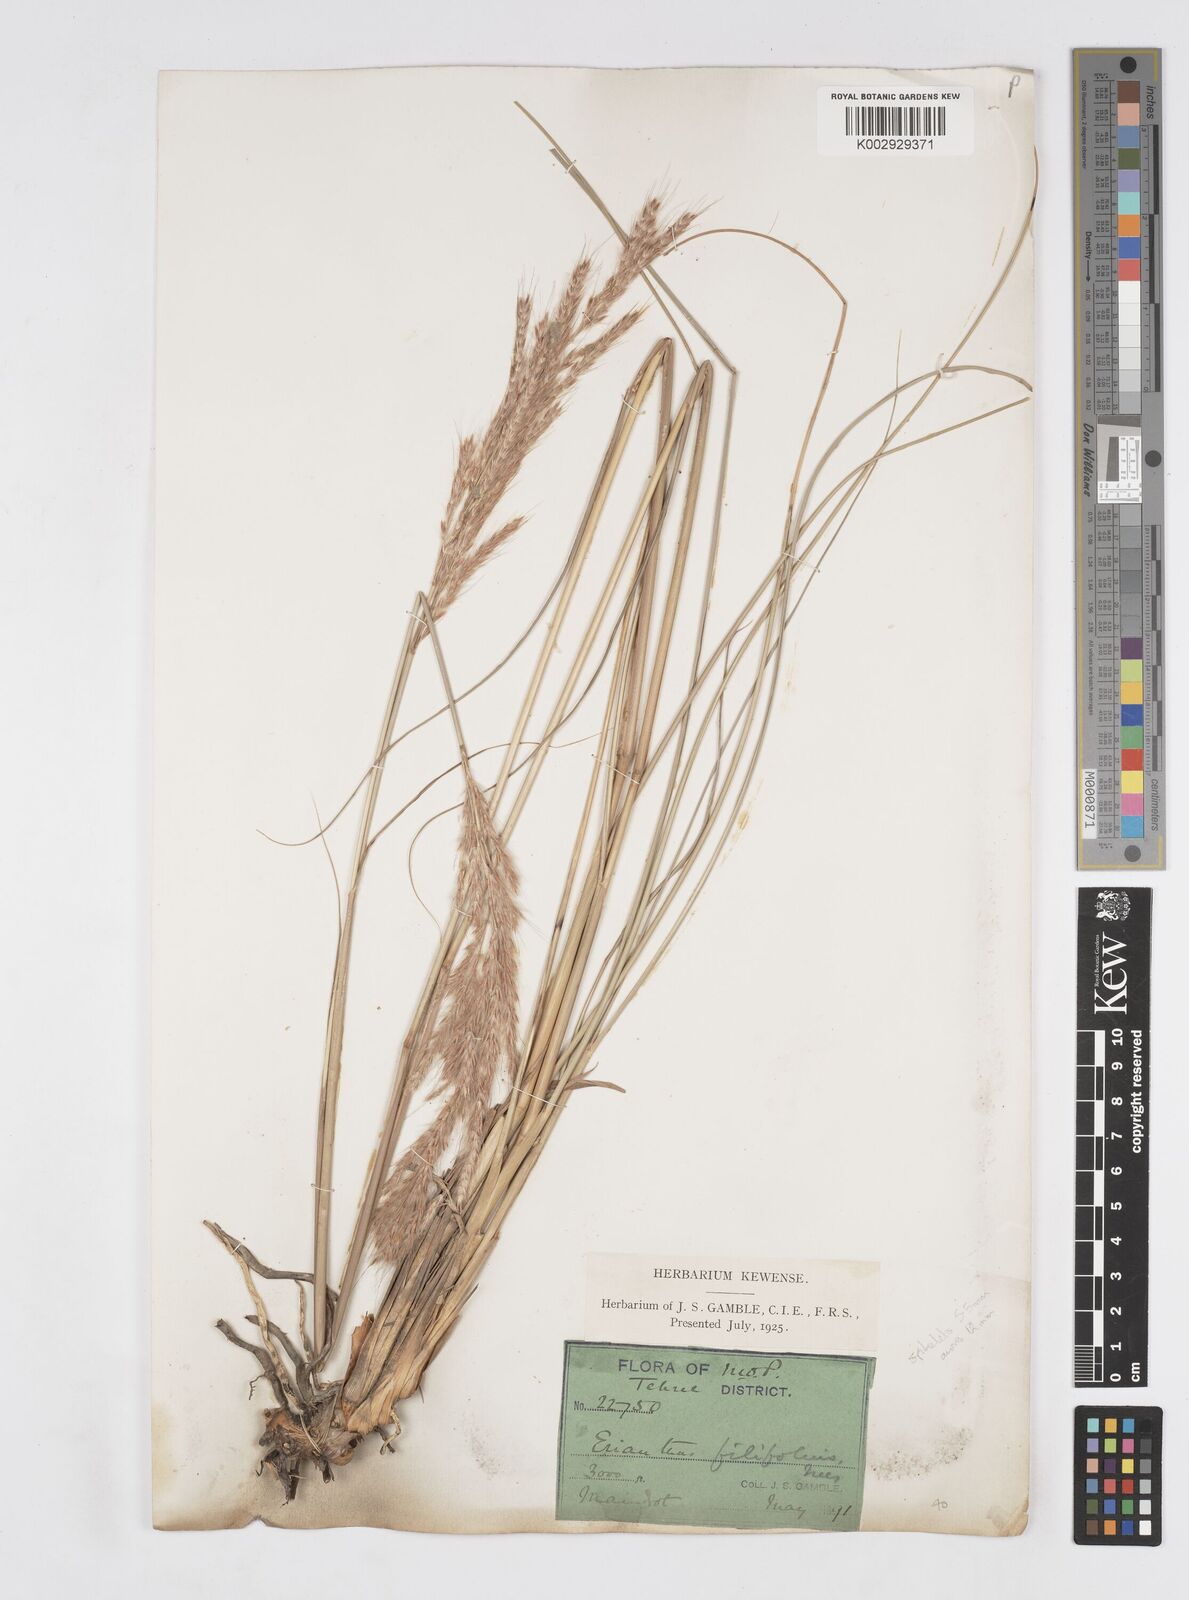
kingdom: Plantae
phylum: Tracheophyta
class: Liliopsida
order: Poales
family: Poaceae
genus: Saccharum
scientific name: Saccharum filifolium
